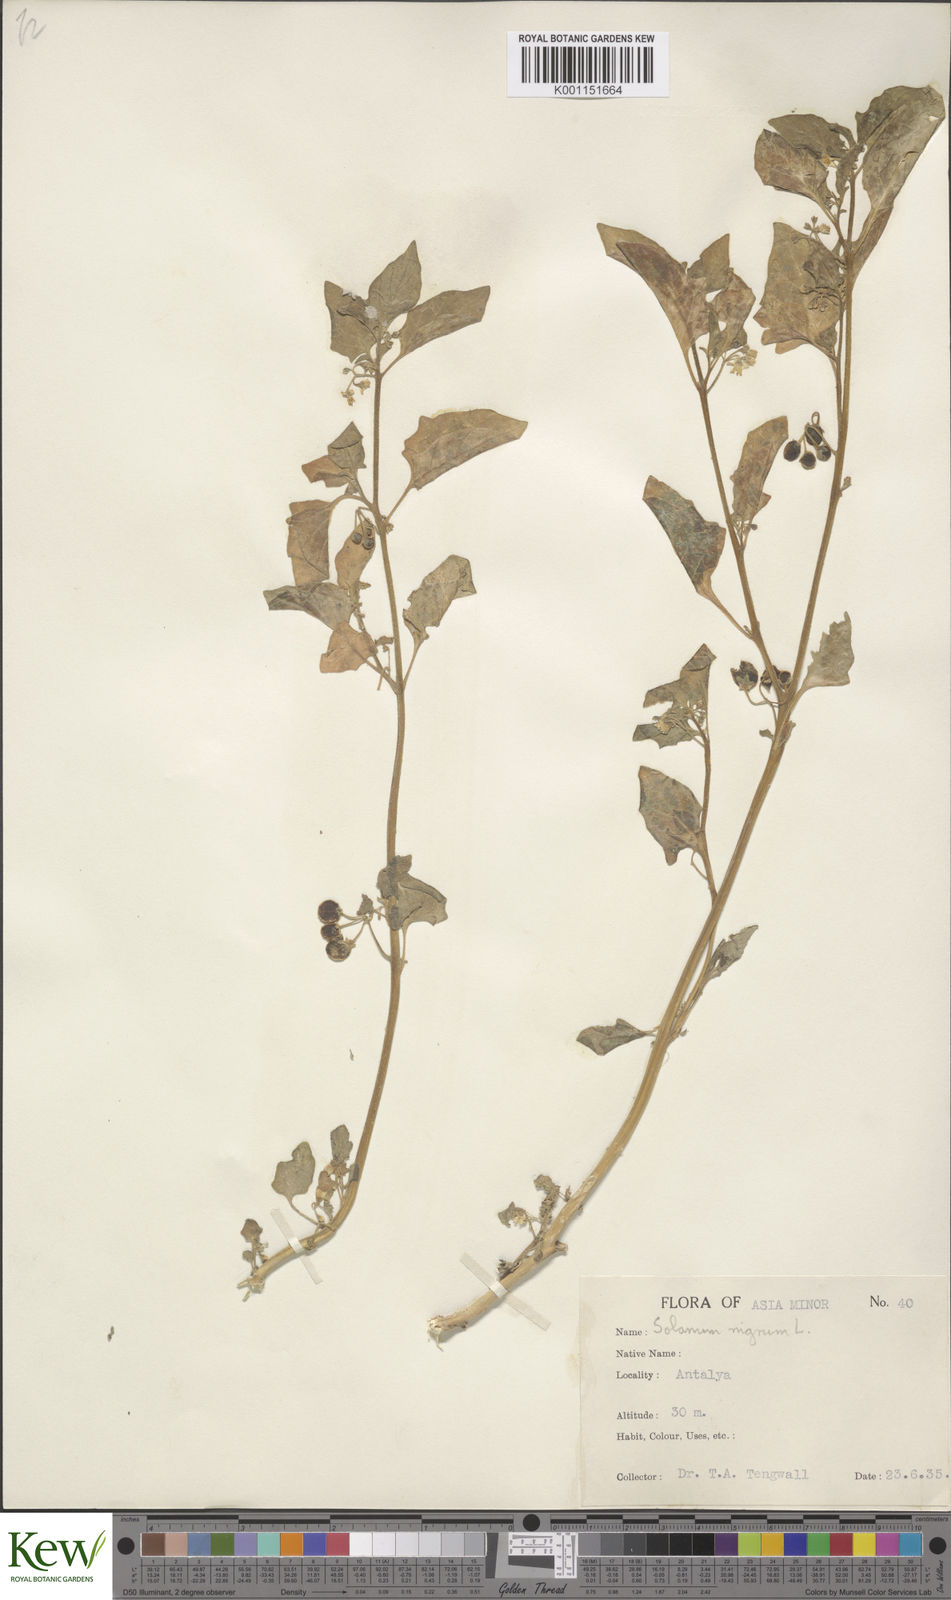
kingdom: Plantae
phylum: Tracheophyta
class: Magnoliopsida
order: Solanales
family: Solanaceae
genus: Solanum
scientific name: Solanum villosum
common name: Red nightshade
